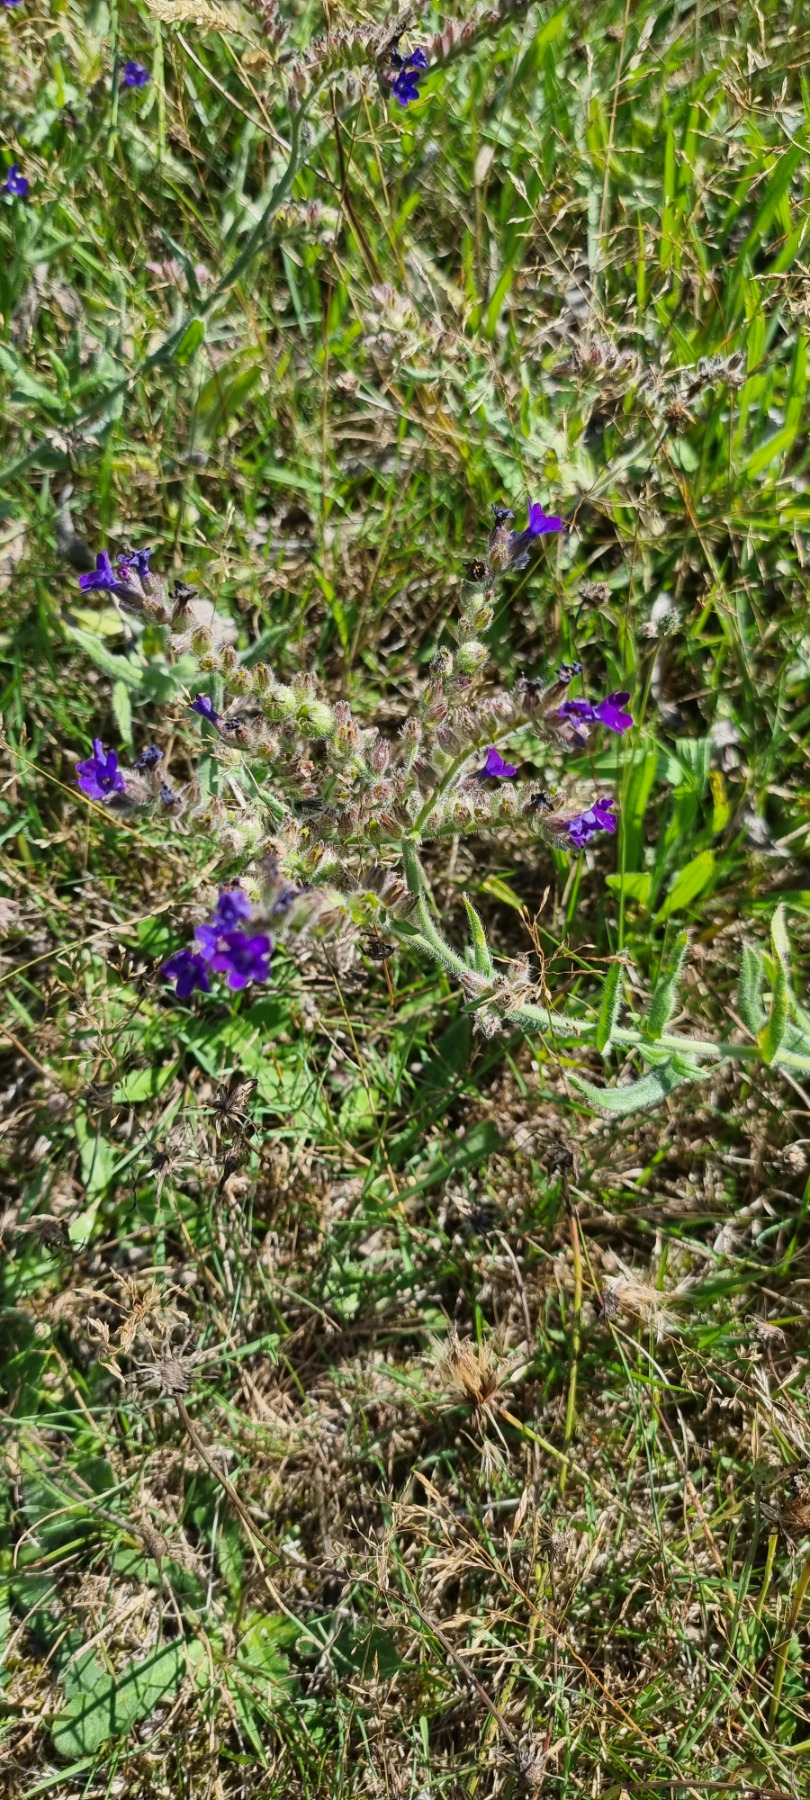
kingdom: Plantae
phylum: Tracheophyta
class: Magnoliopsida
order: Boraginales
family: Boraginaceae
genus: Anchusa
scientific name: Anchusa officinalis
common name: Læge-oksetunge
